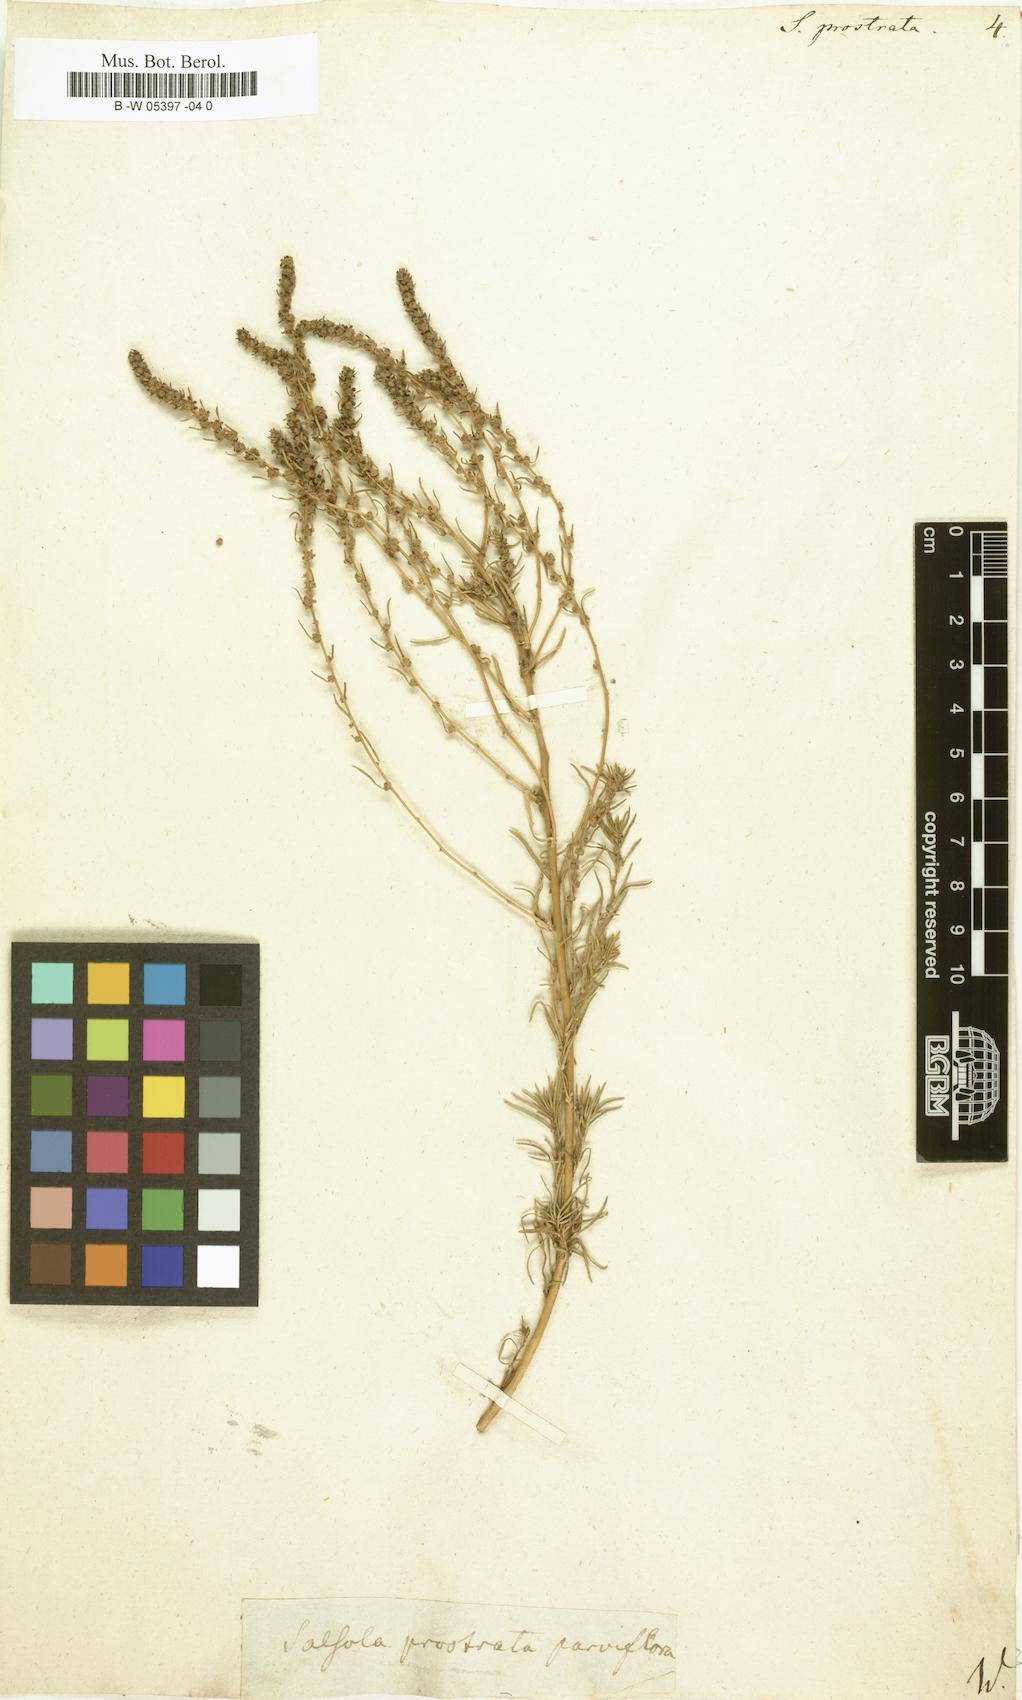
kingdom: Plantae
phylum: Tracheophyta
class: Magnoliopsida
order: Caryophyllales
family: Amaranthaceae
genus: Bassia
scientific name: Bassia
